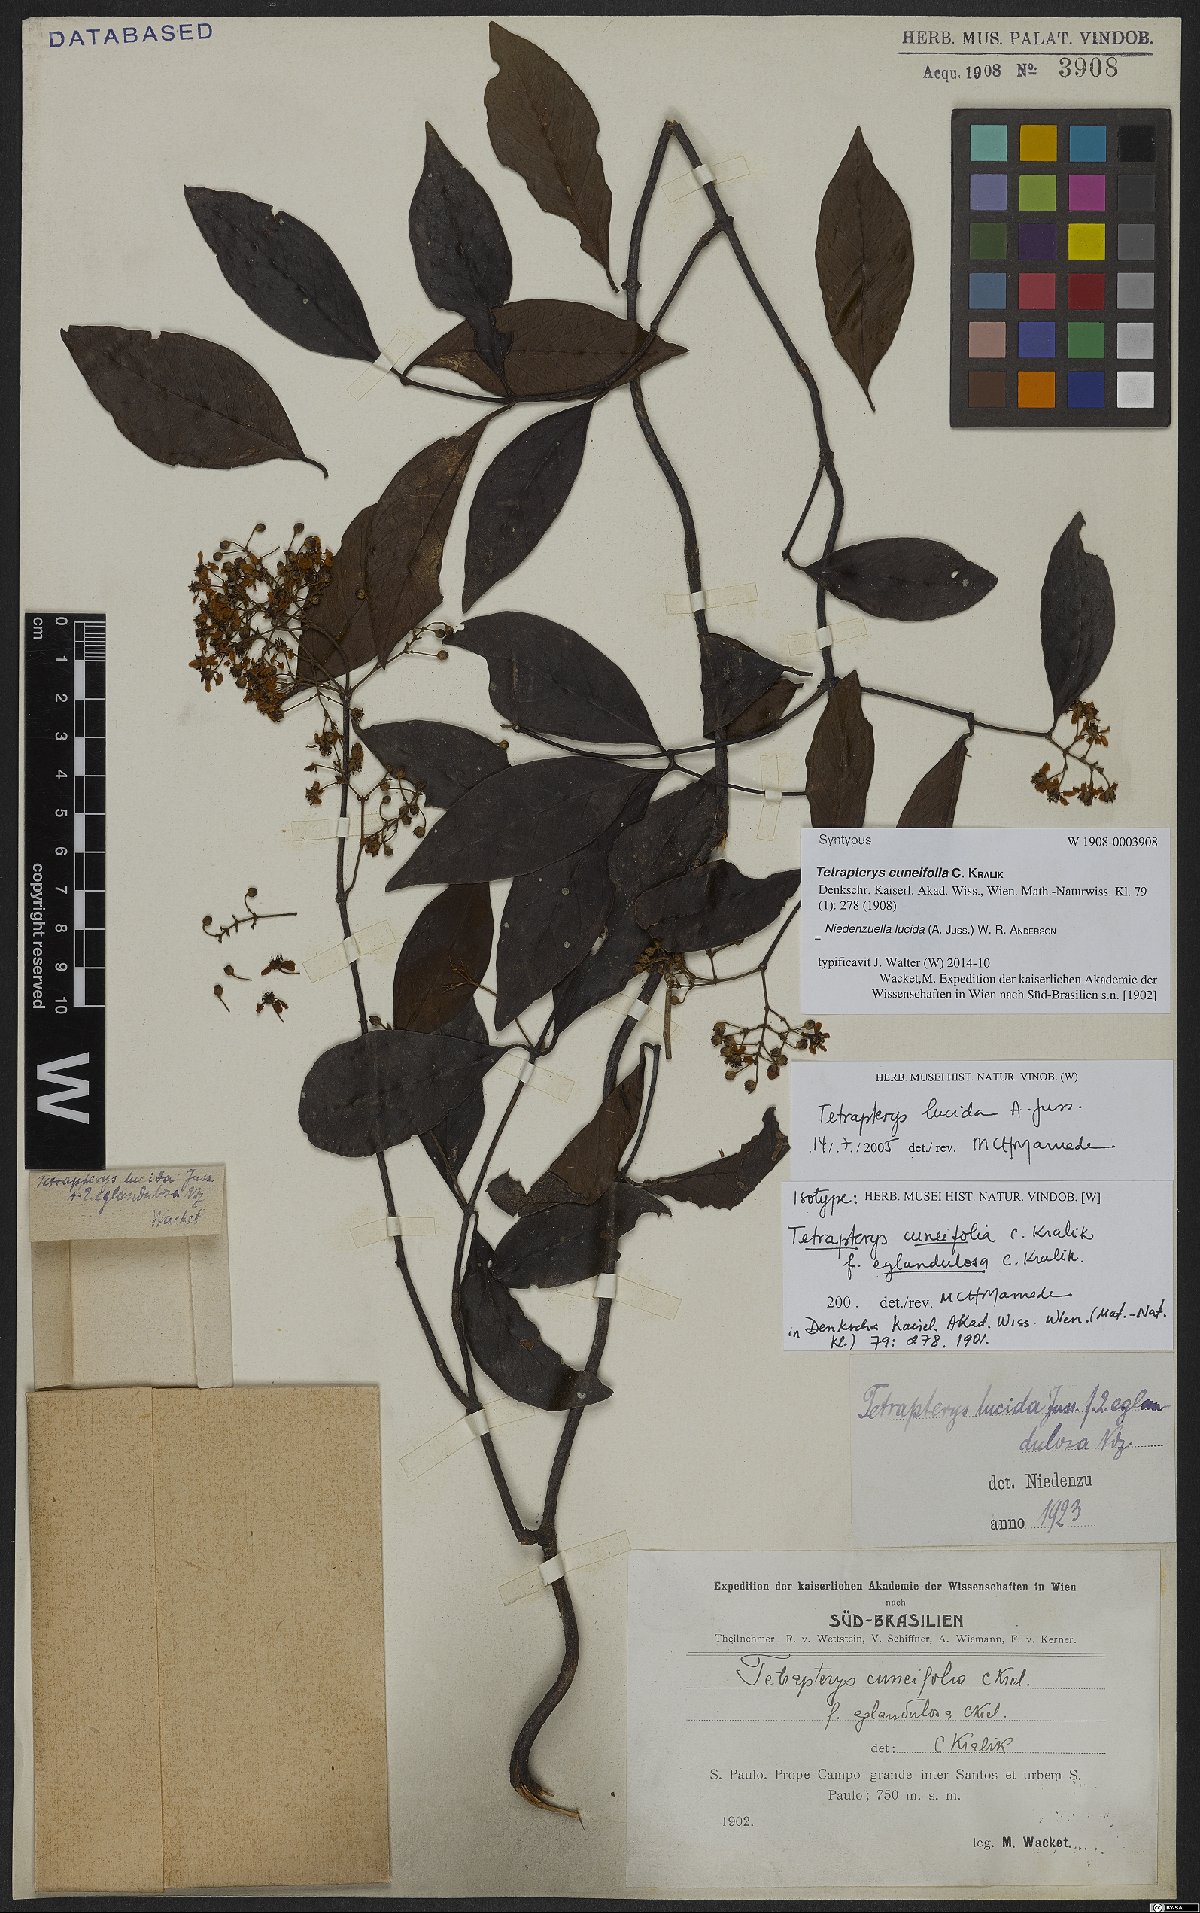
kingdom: Plantae
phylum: Tracheophyta
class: Magnoliopsida
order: Malpighiales
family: Malpighiaceae
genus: Niedenzuella
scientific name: Niedenzuella lucida
